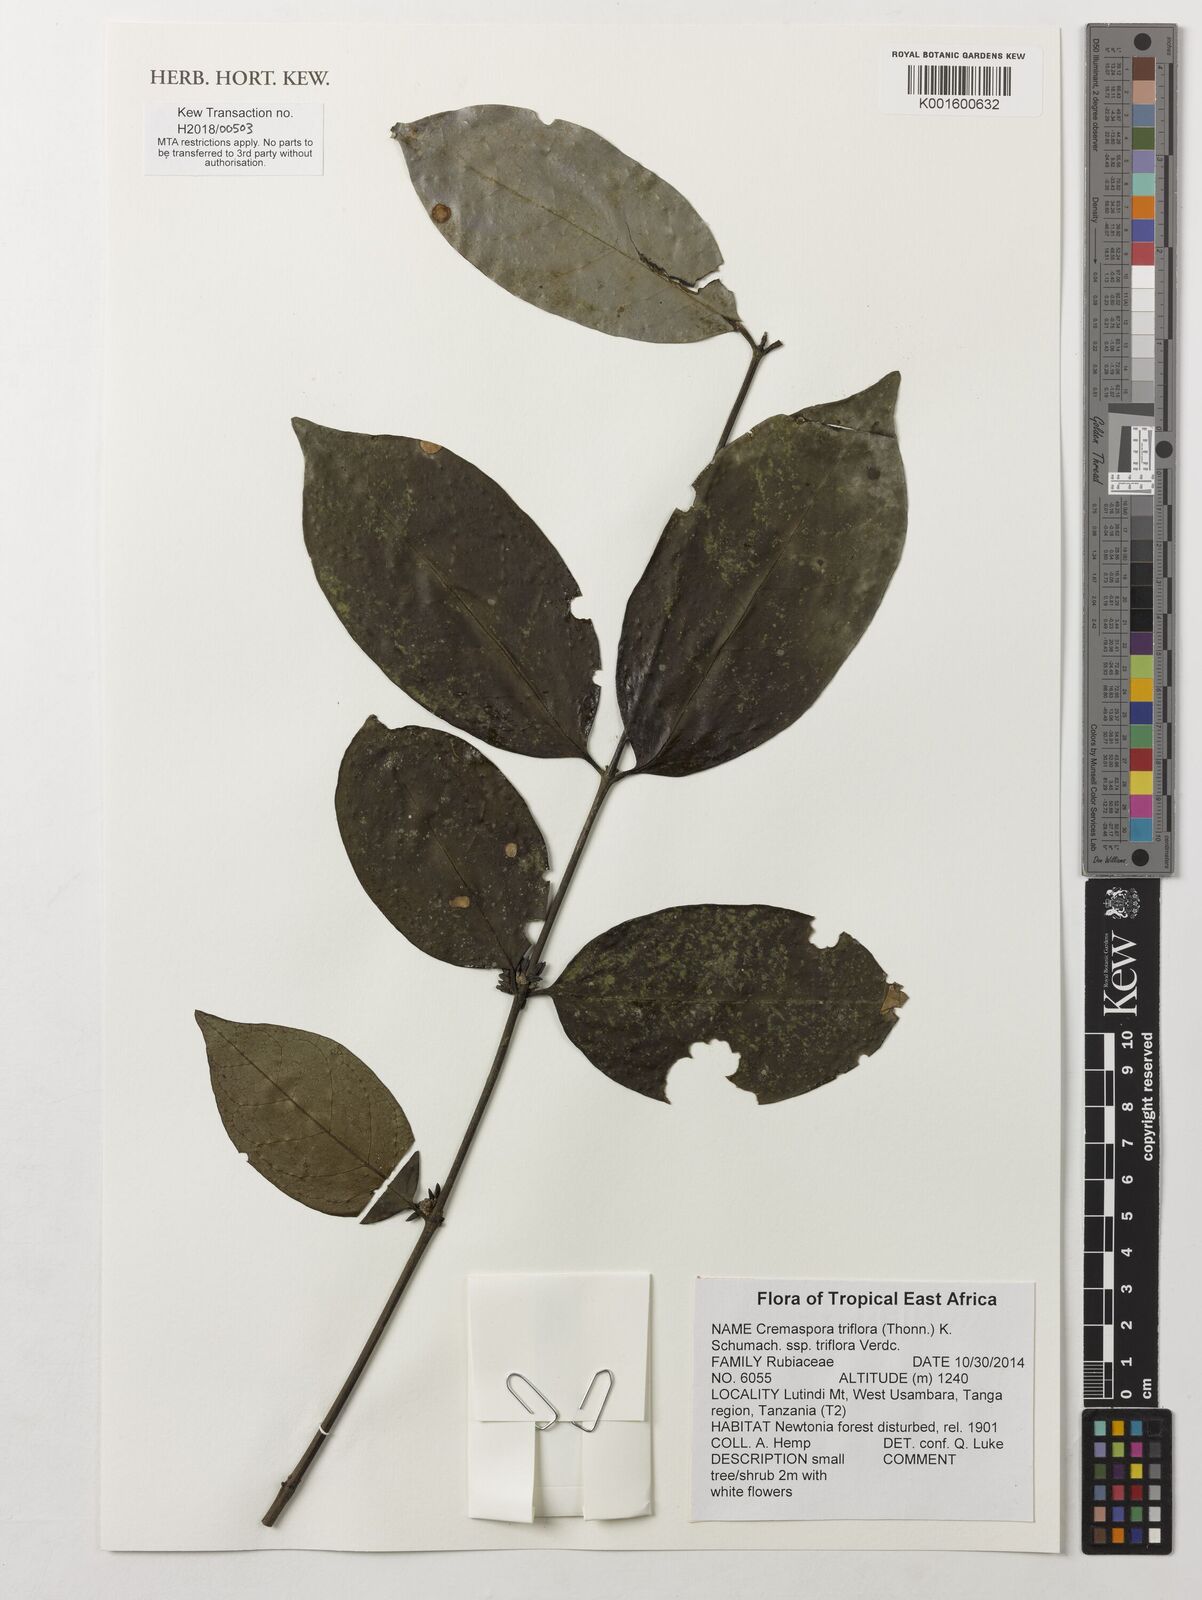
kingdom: Plantae
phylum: Tracheophyta
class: Magnoliopsida
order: Gentianales
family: Rubiaceae
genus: Cremaspora
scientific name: Cremaspora triflora
